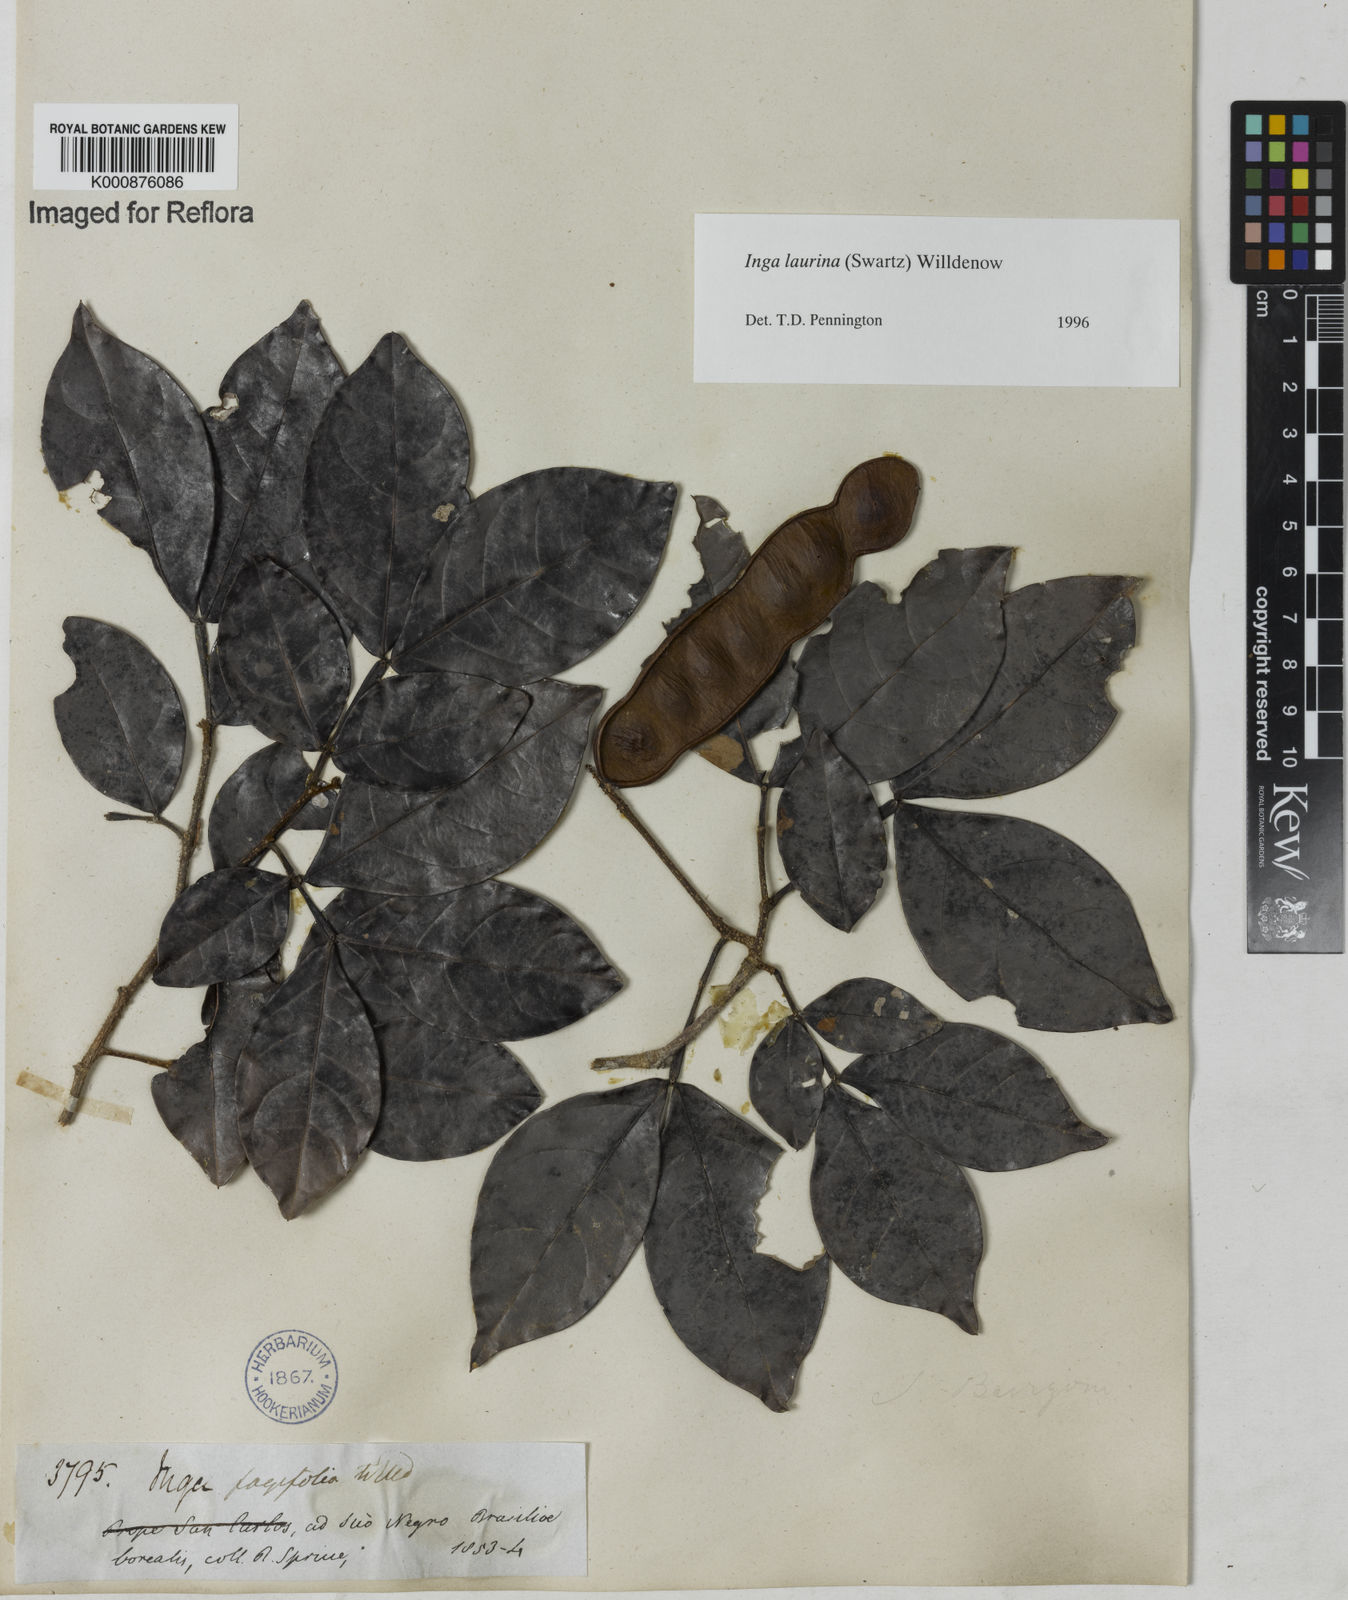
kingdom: Plantae
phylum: Tracheophyta
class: Magnoliopsida
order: Fabales
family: Fabaceae
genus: Inga
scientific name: Inga laurina
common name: Red wood
